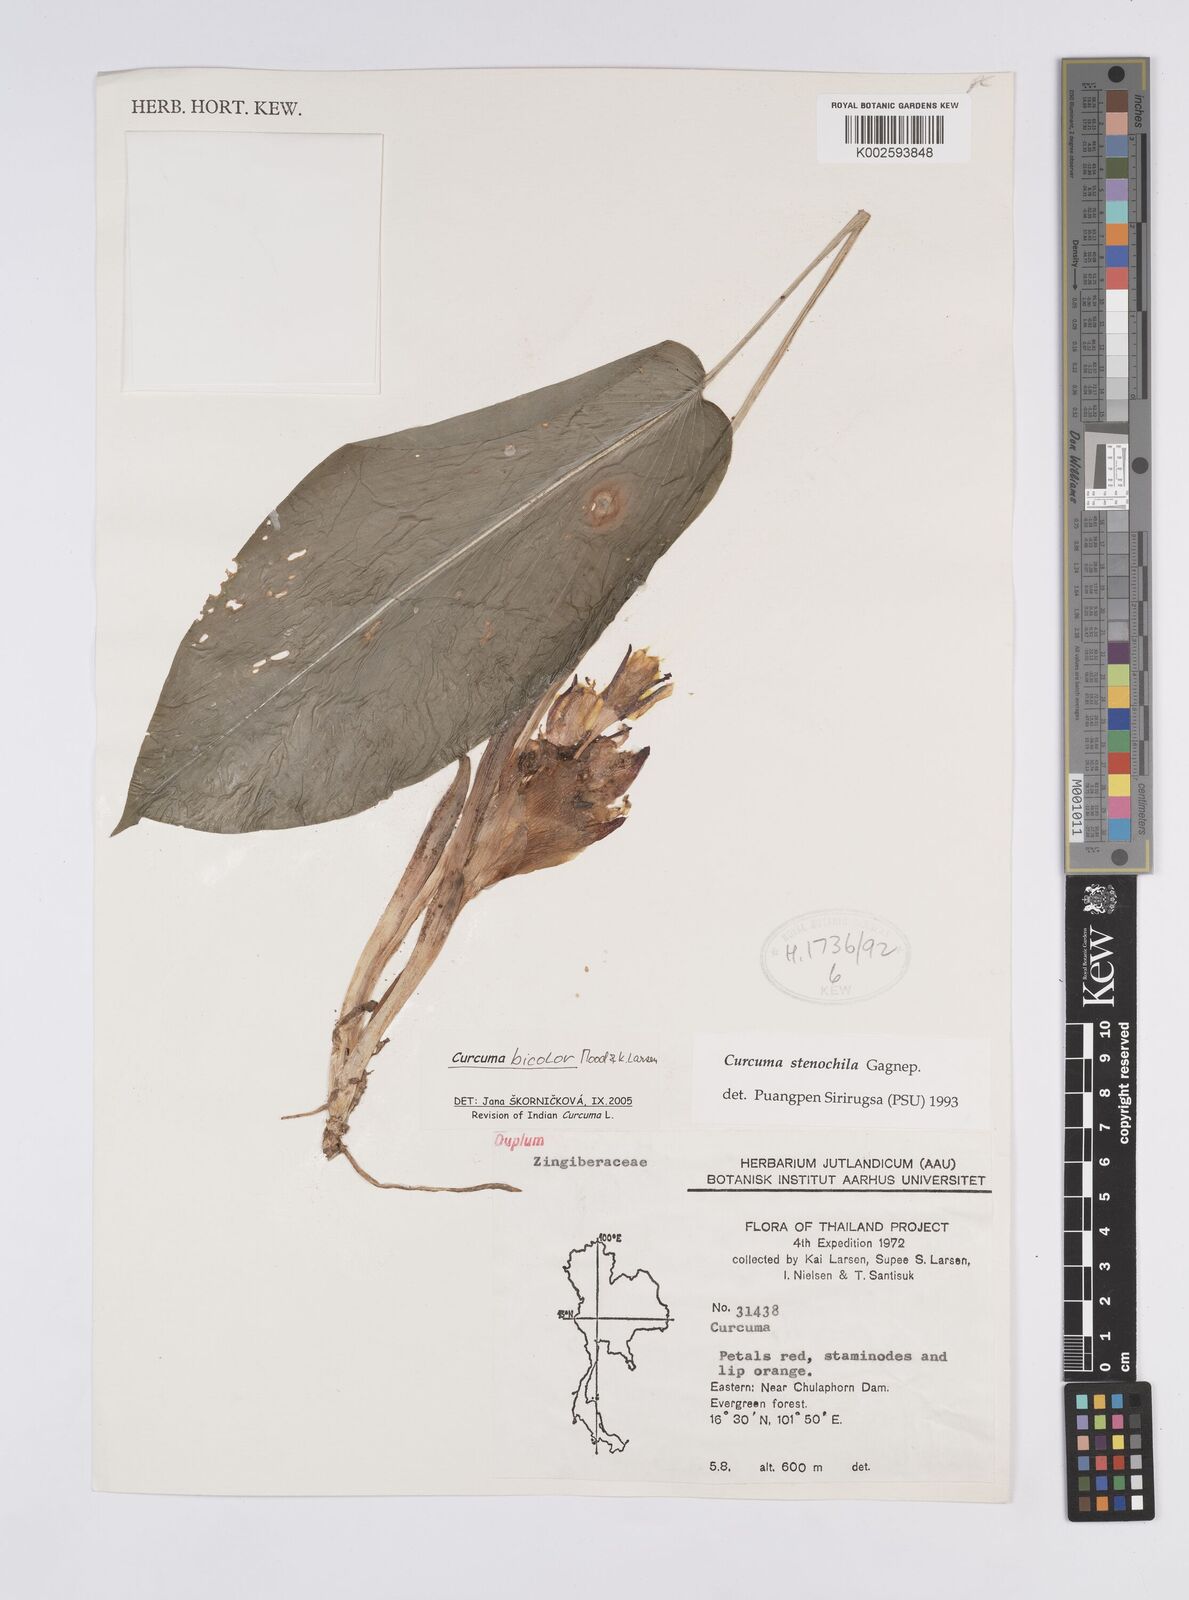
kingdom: Plantae
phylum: Tracheophyta
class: Liliopsida
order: Zingiberales
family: Zingiberaceae
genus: Curcuma
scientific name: Curcuma bicolor
